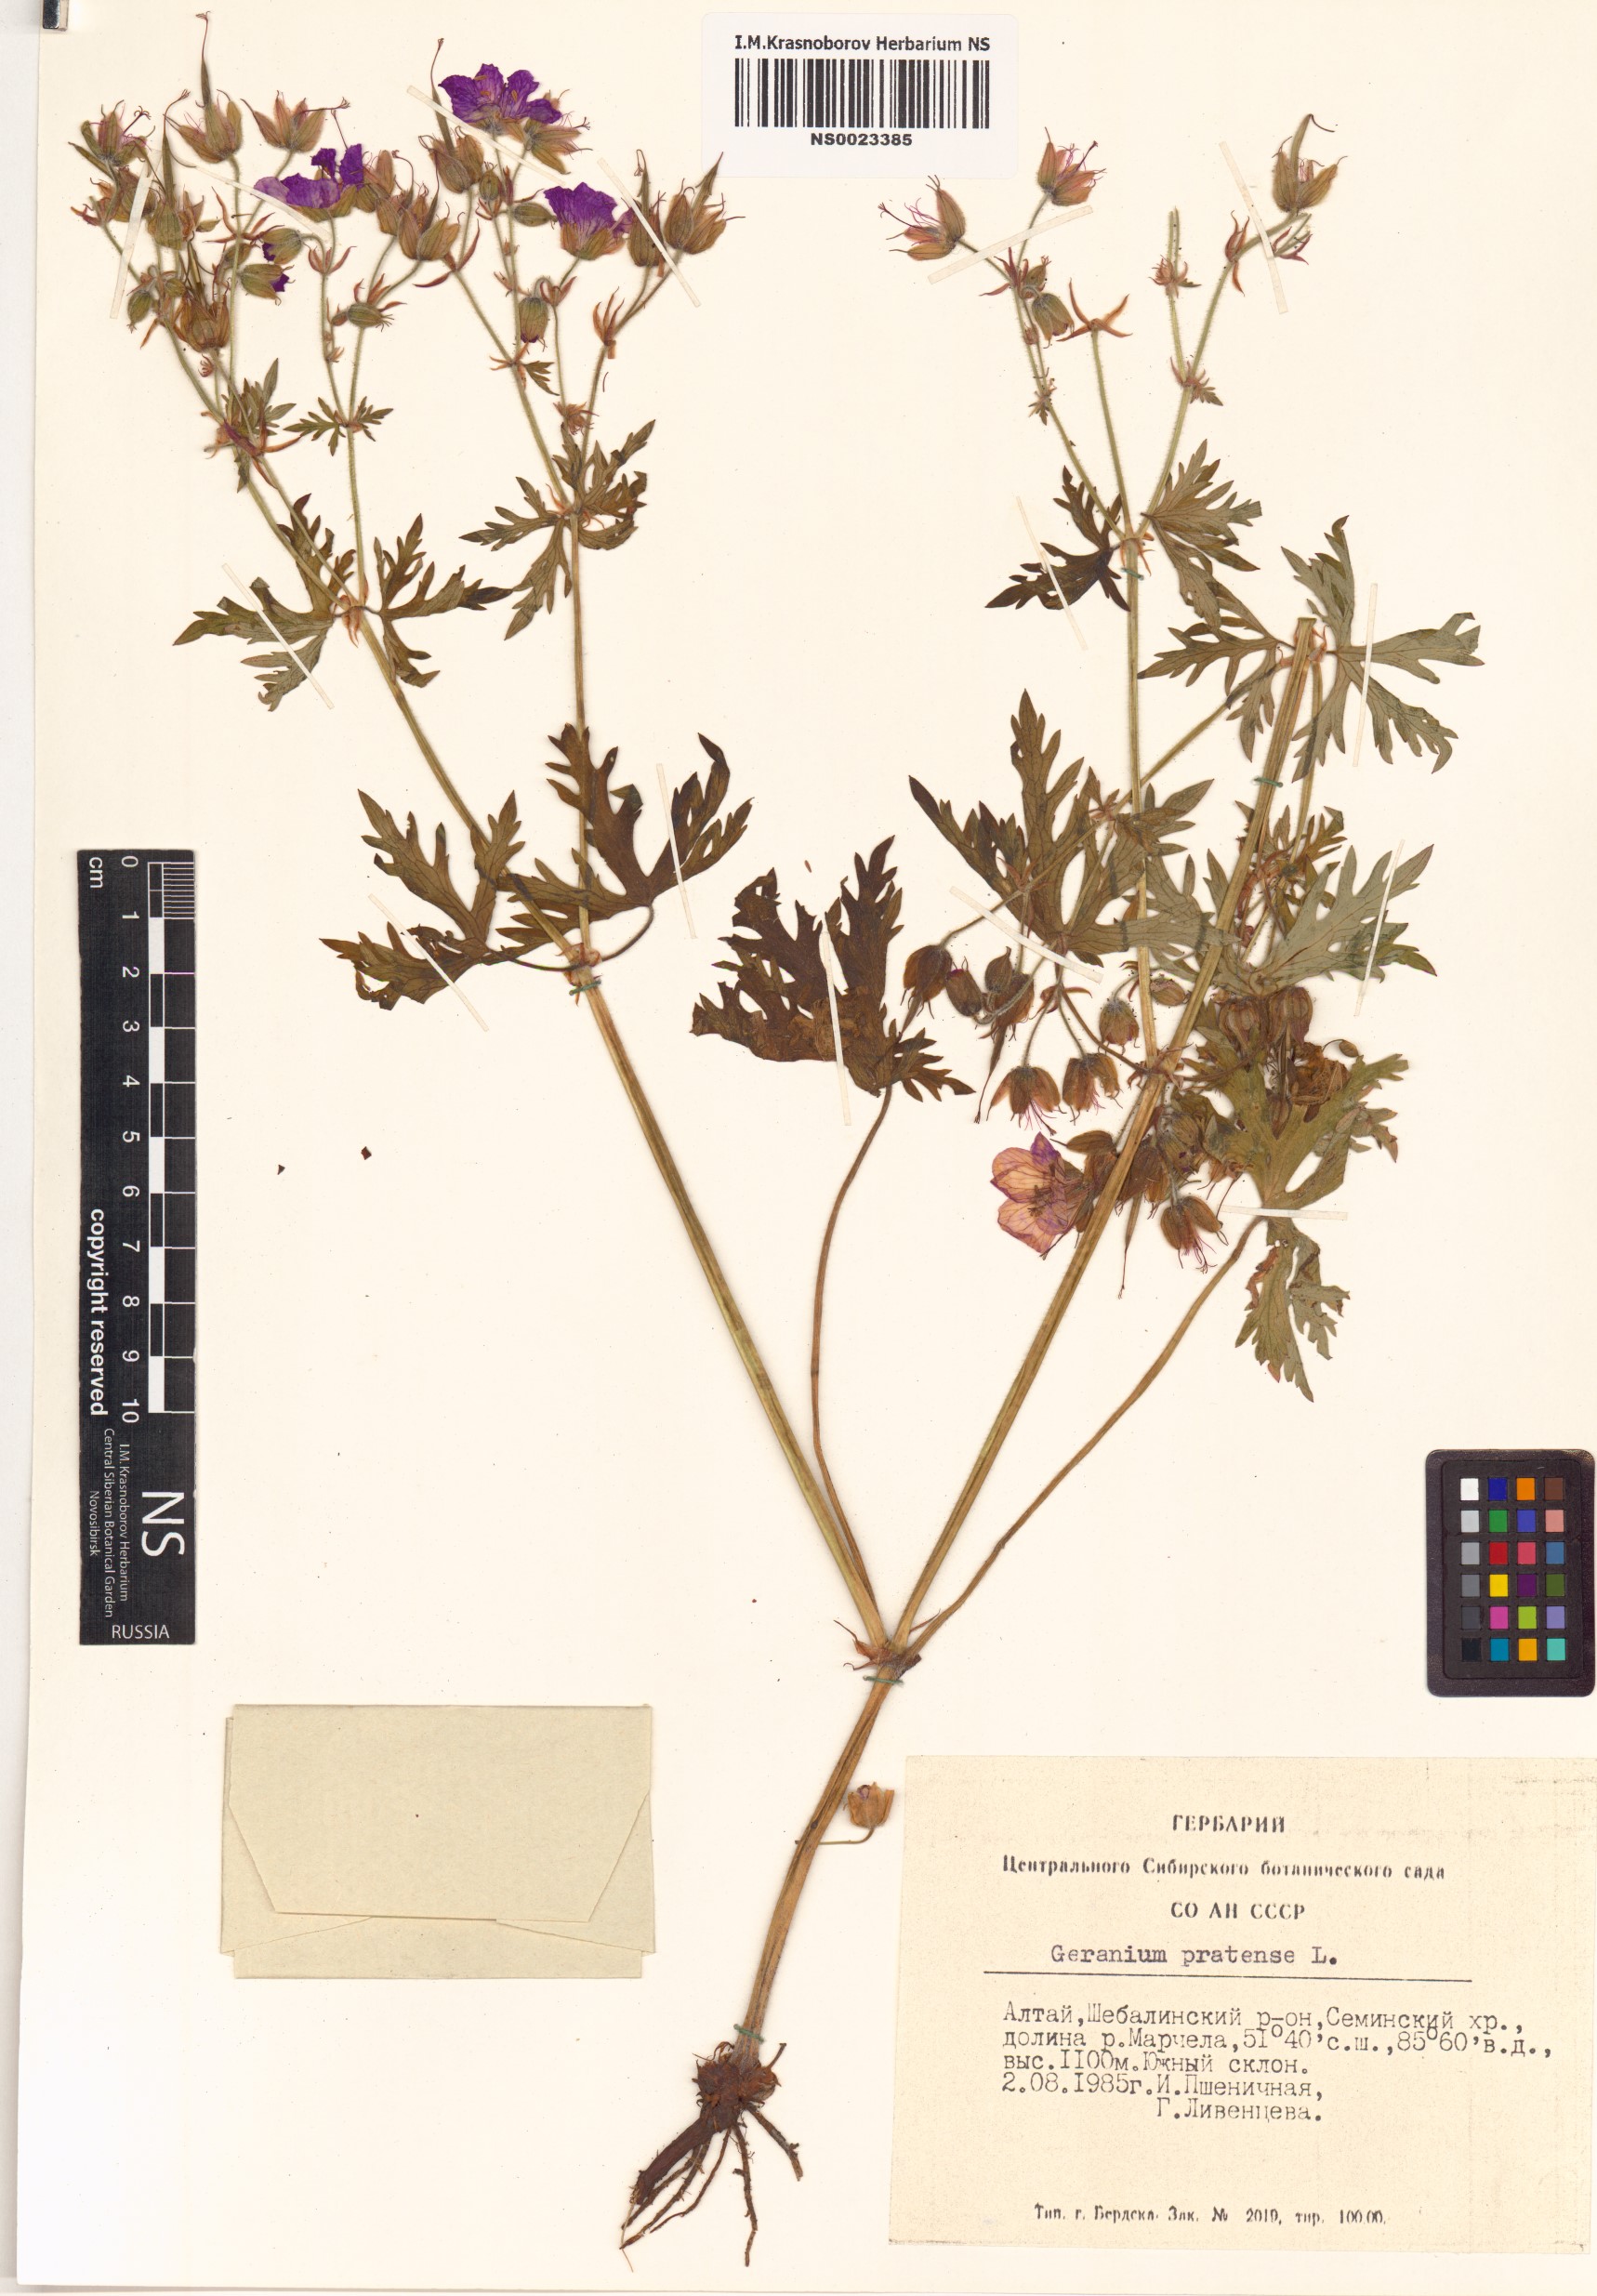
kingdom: Plantae
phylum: Tracheophyta
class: Magnoliopsida
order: Geraniales
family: Geraniaceae
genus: Geranium
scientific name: Geranium pratense
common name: Meadow crane's-bill
